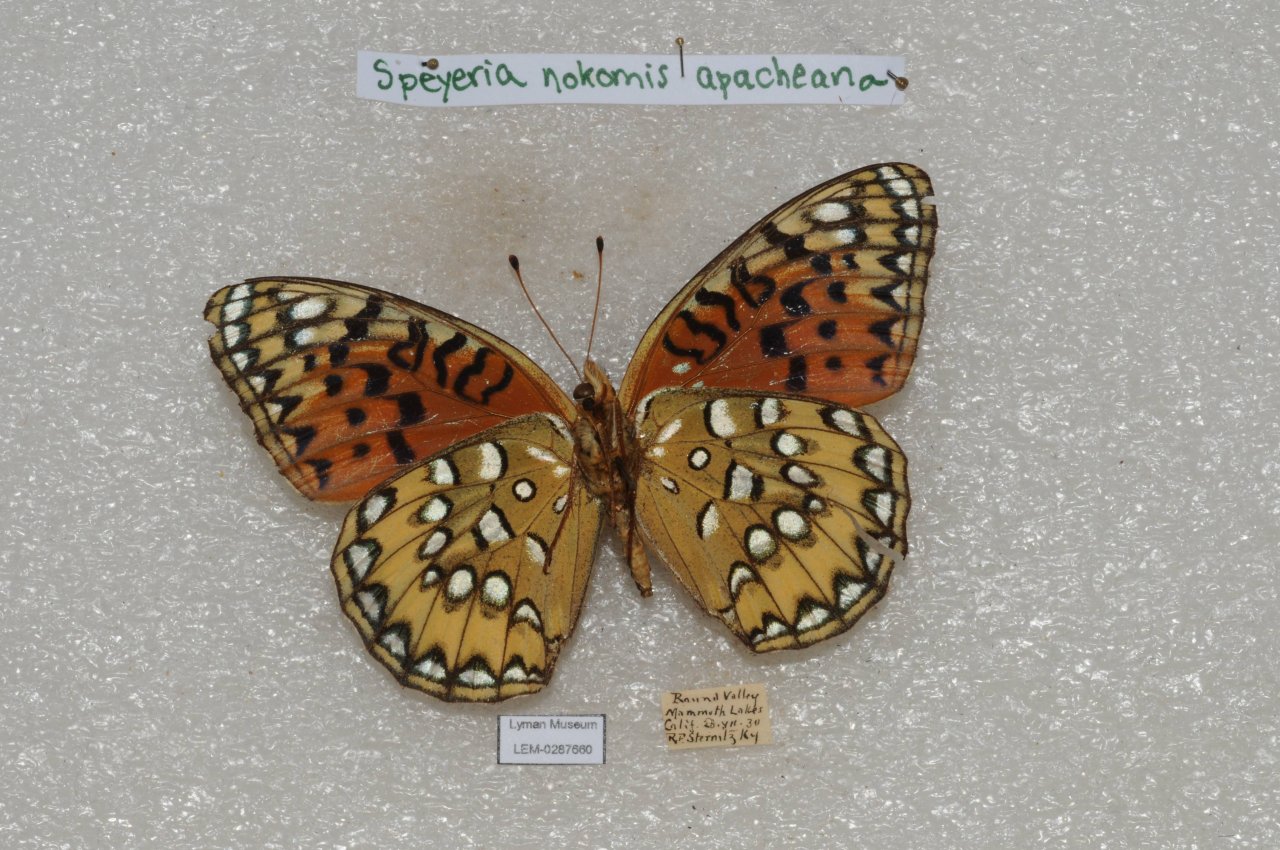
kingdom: Animalia
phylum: Arthropoda
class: Insecta
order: Lepidoptera
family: Nymphalidae
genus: Speyeria
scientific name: Speyeria nokomis
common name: Nokomis Fritillary
